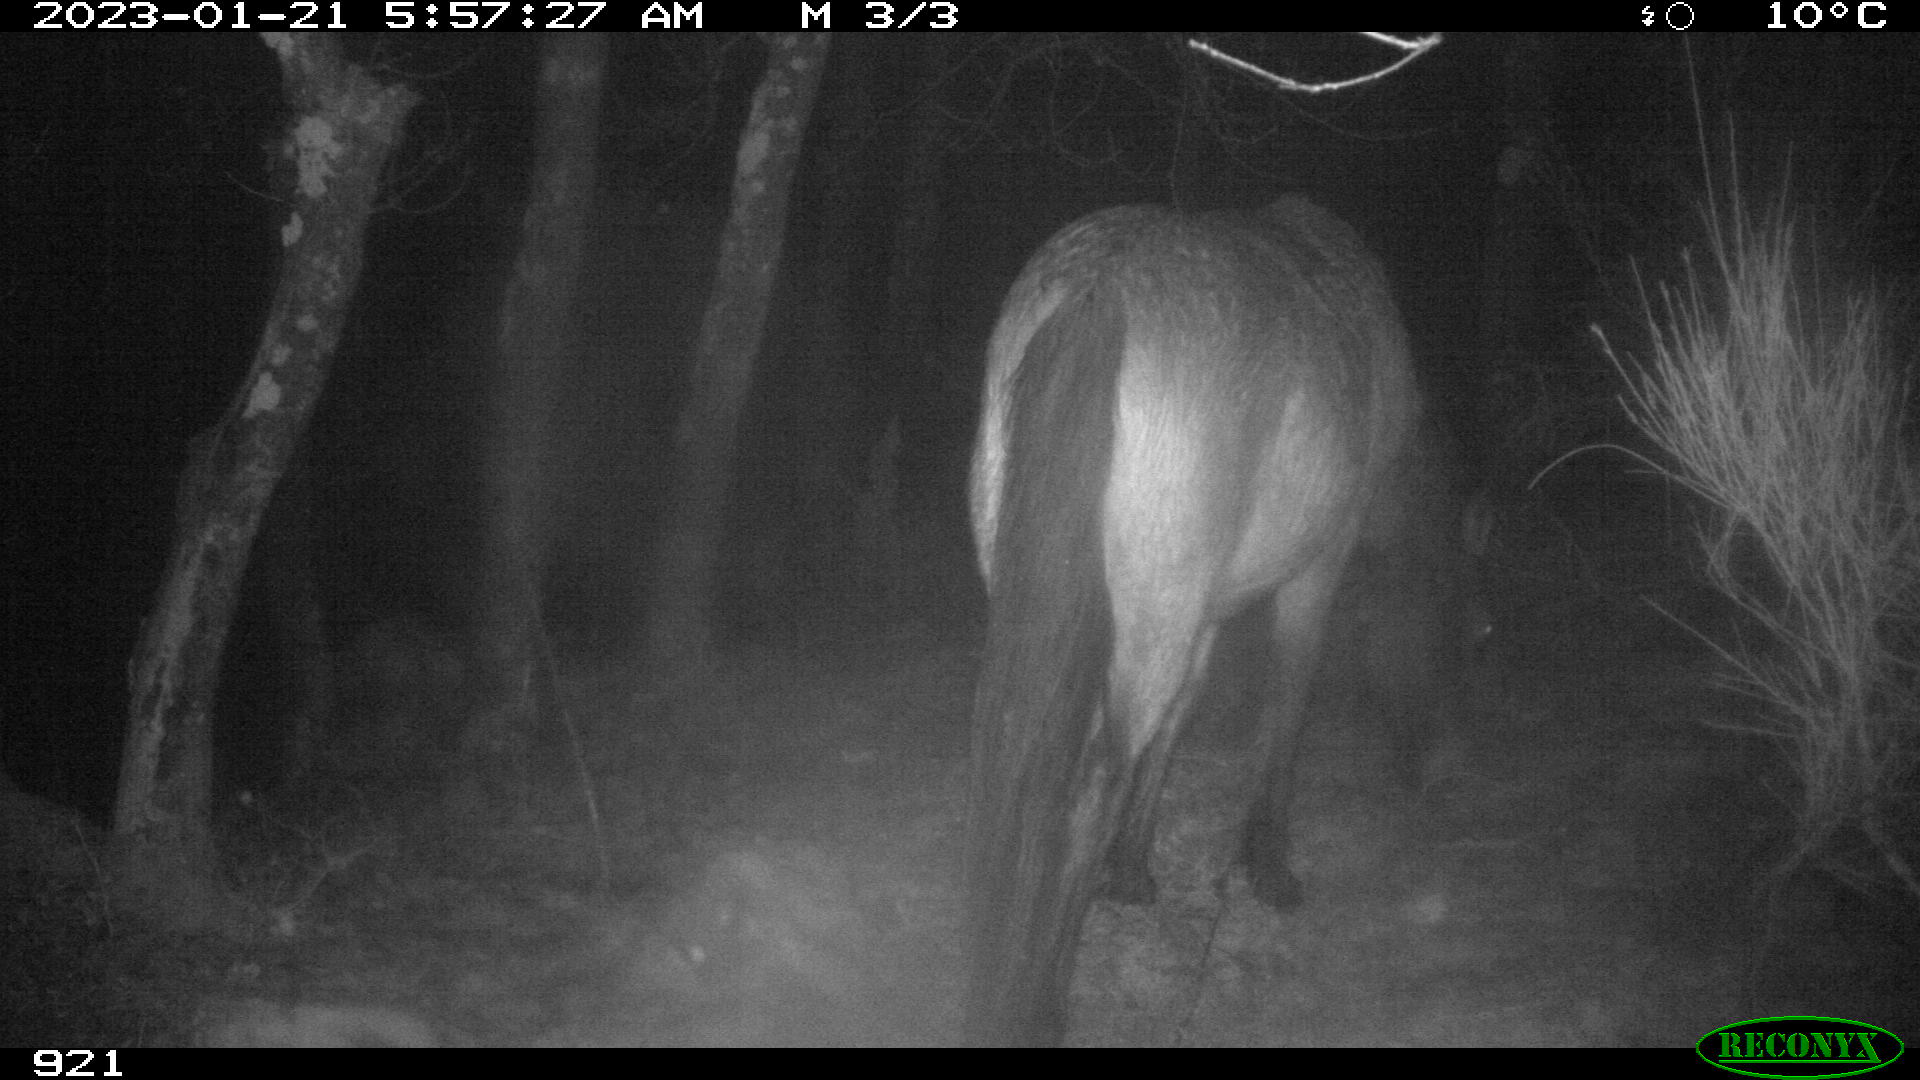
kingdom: Animalia
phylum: Chordata
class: Mammalia
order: Perissodactyla
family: Equidae
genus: Equus
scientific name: Equus caballus
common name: Horse
